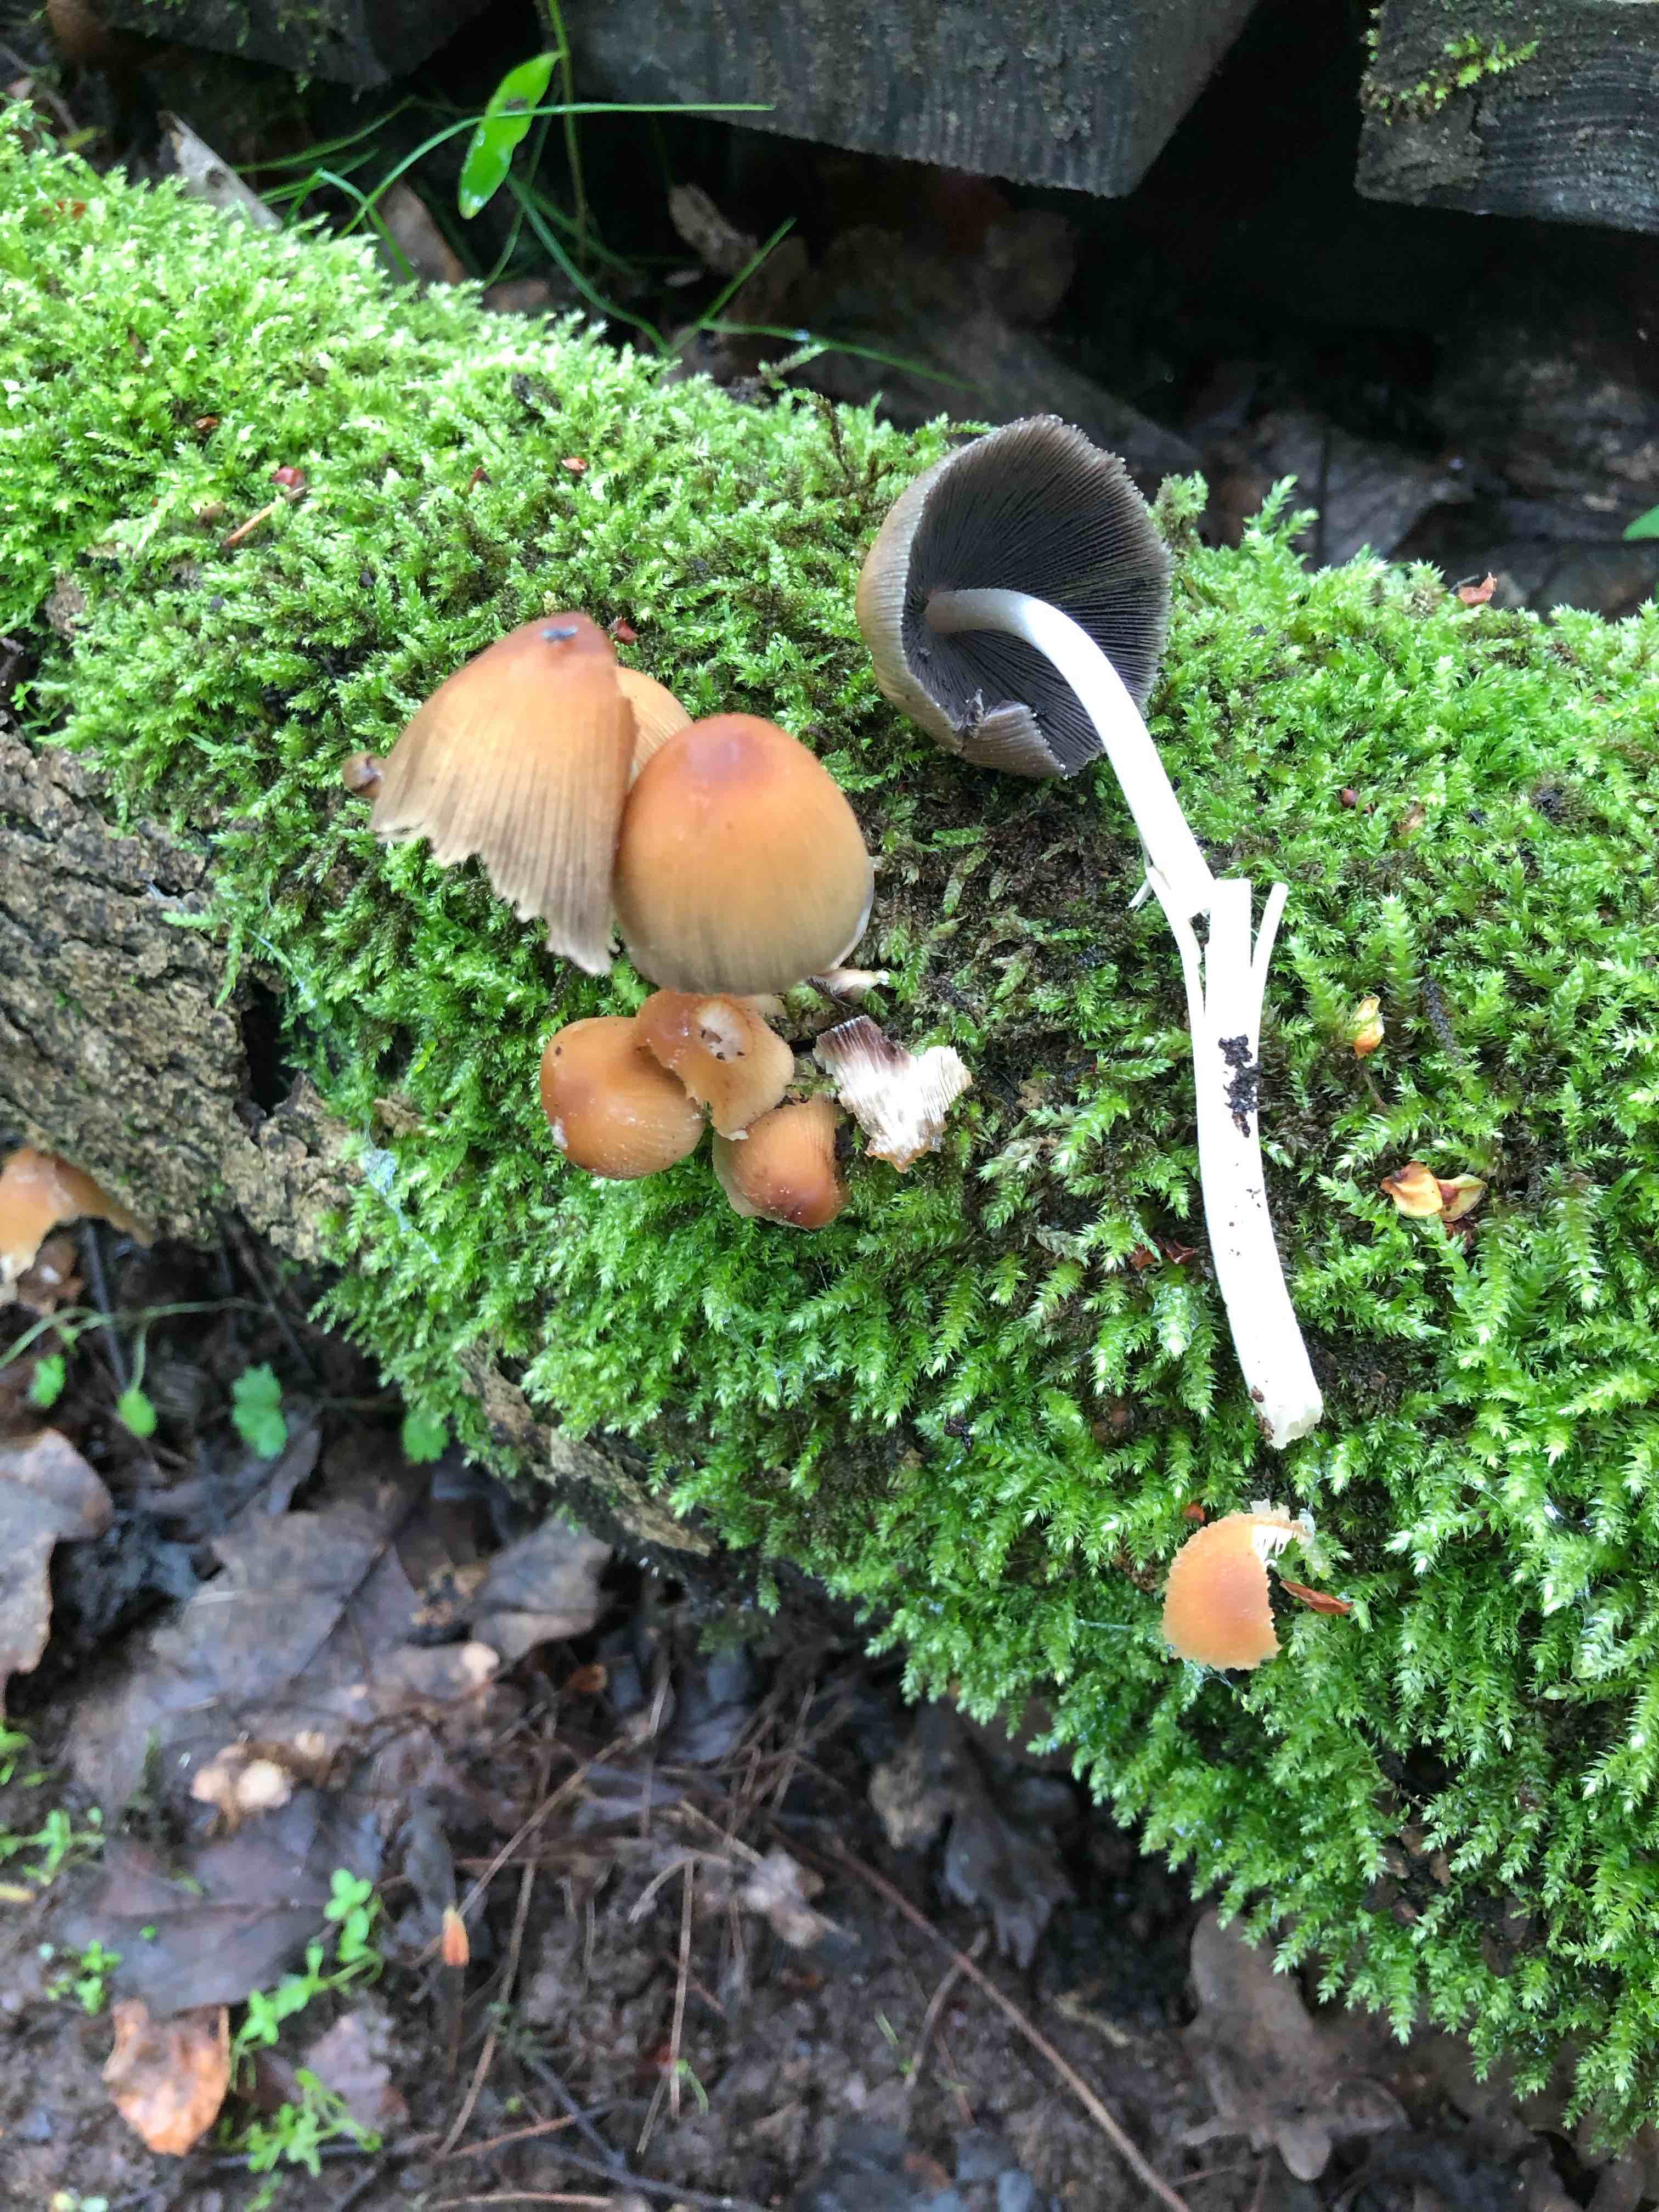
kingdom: Fungi
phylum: Basidiomycota
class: Agaricomycetes
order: Agaricales
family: Psathyrellaceae
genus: Coprinellus
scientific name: Coprinellus micaceus
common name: glimmer-blækhat
